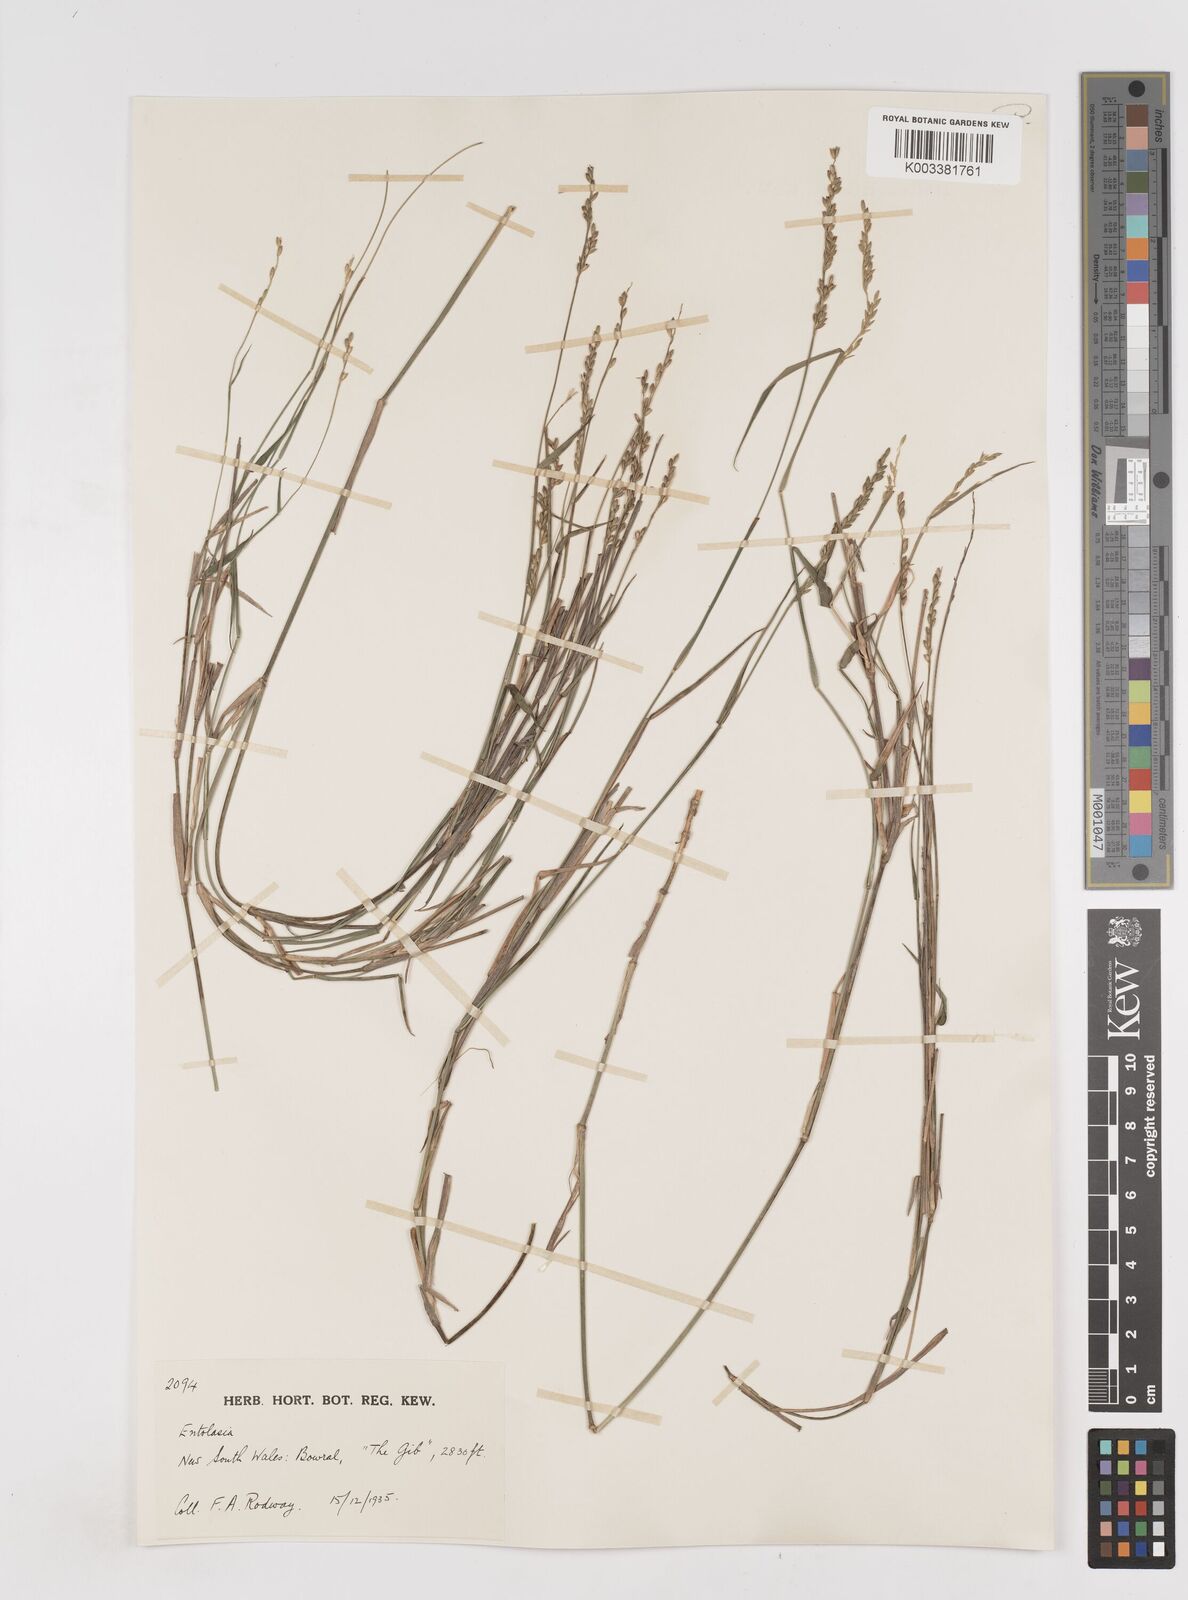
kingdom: Plantae
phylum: Tracheophyta
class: Liliopsida
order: Poales
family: Poaceae
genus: Entolasia
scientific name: Entolasia stricta
